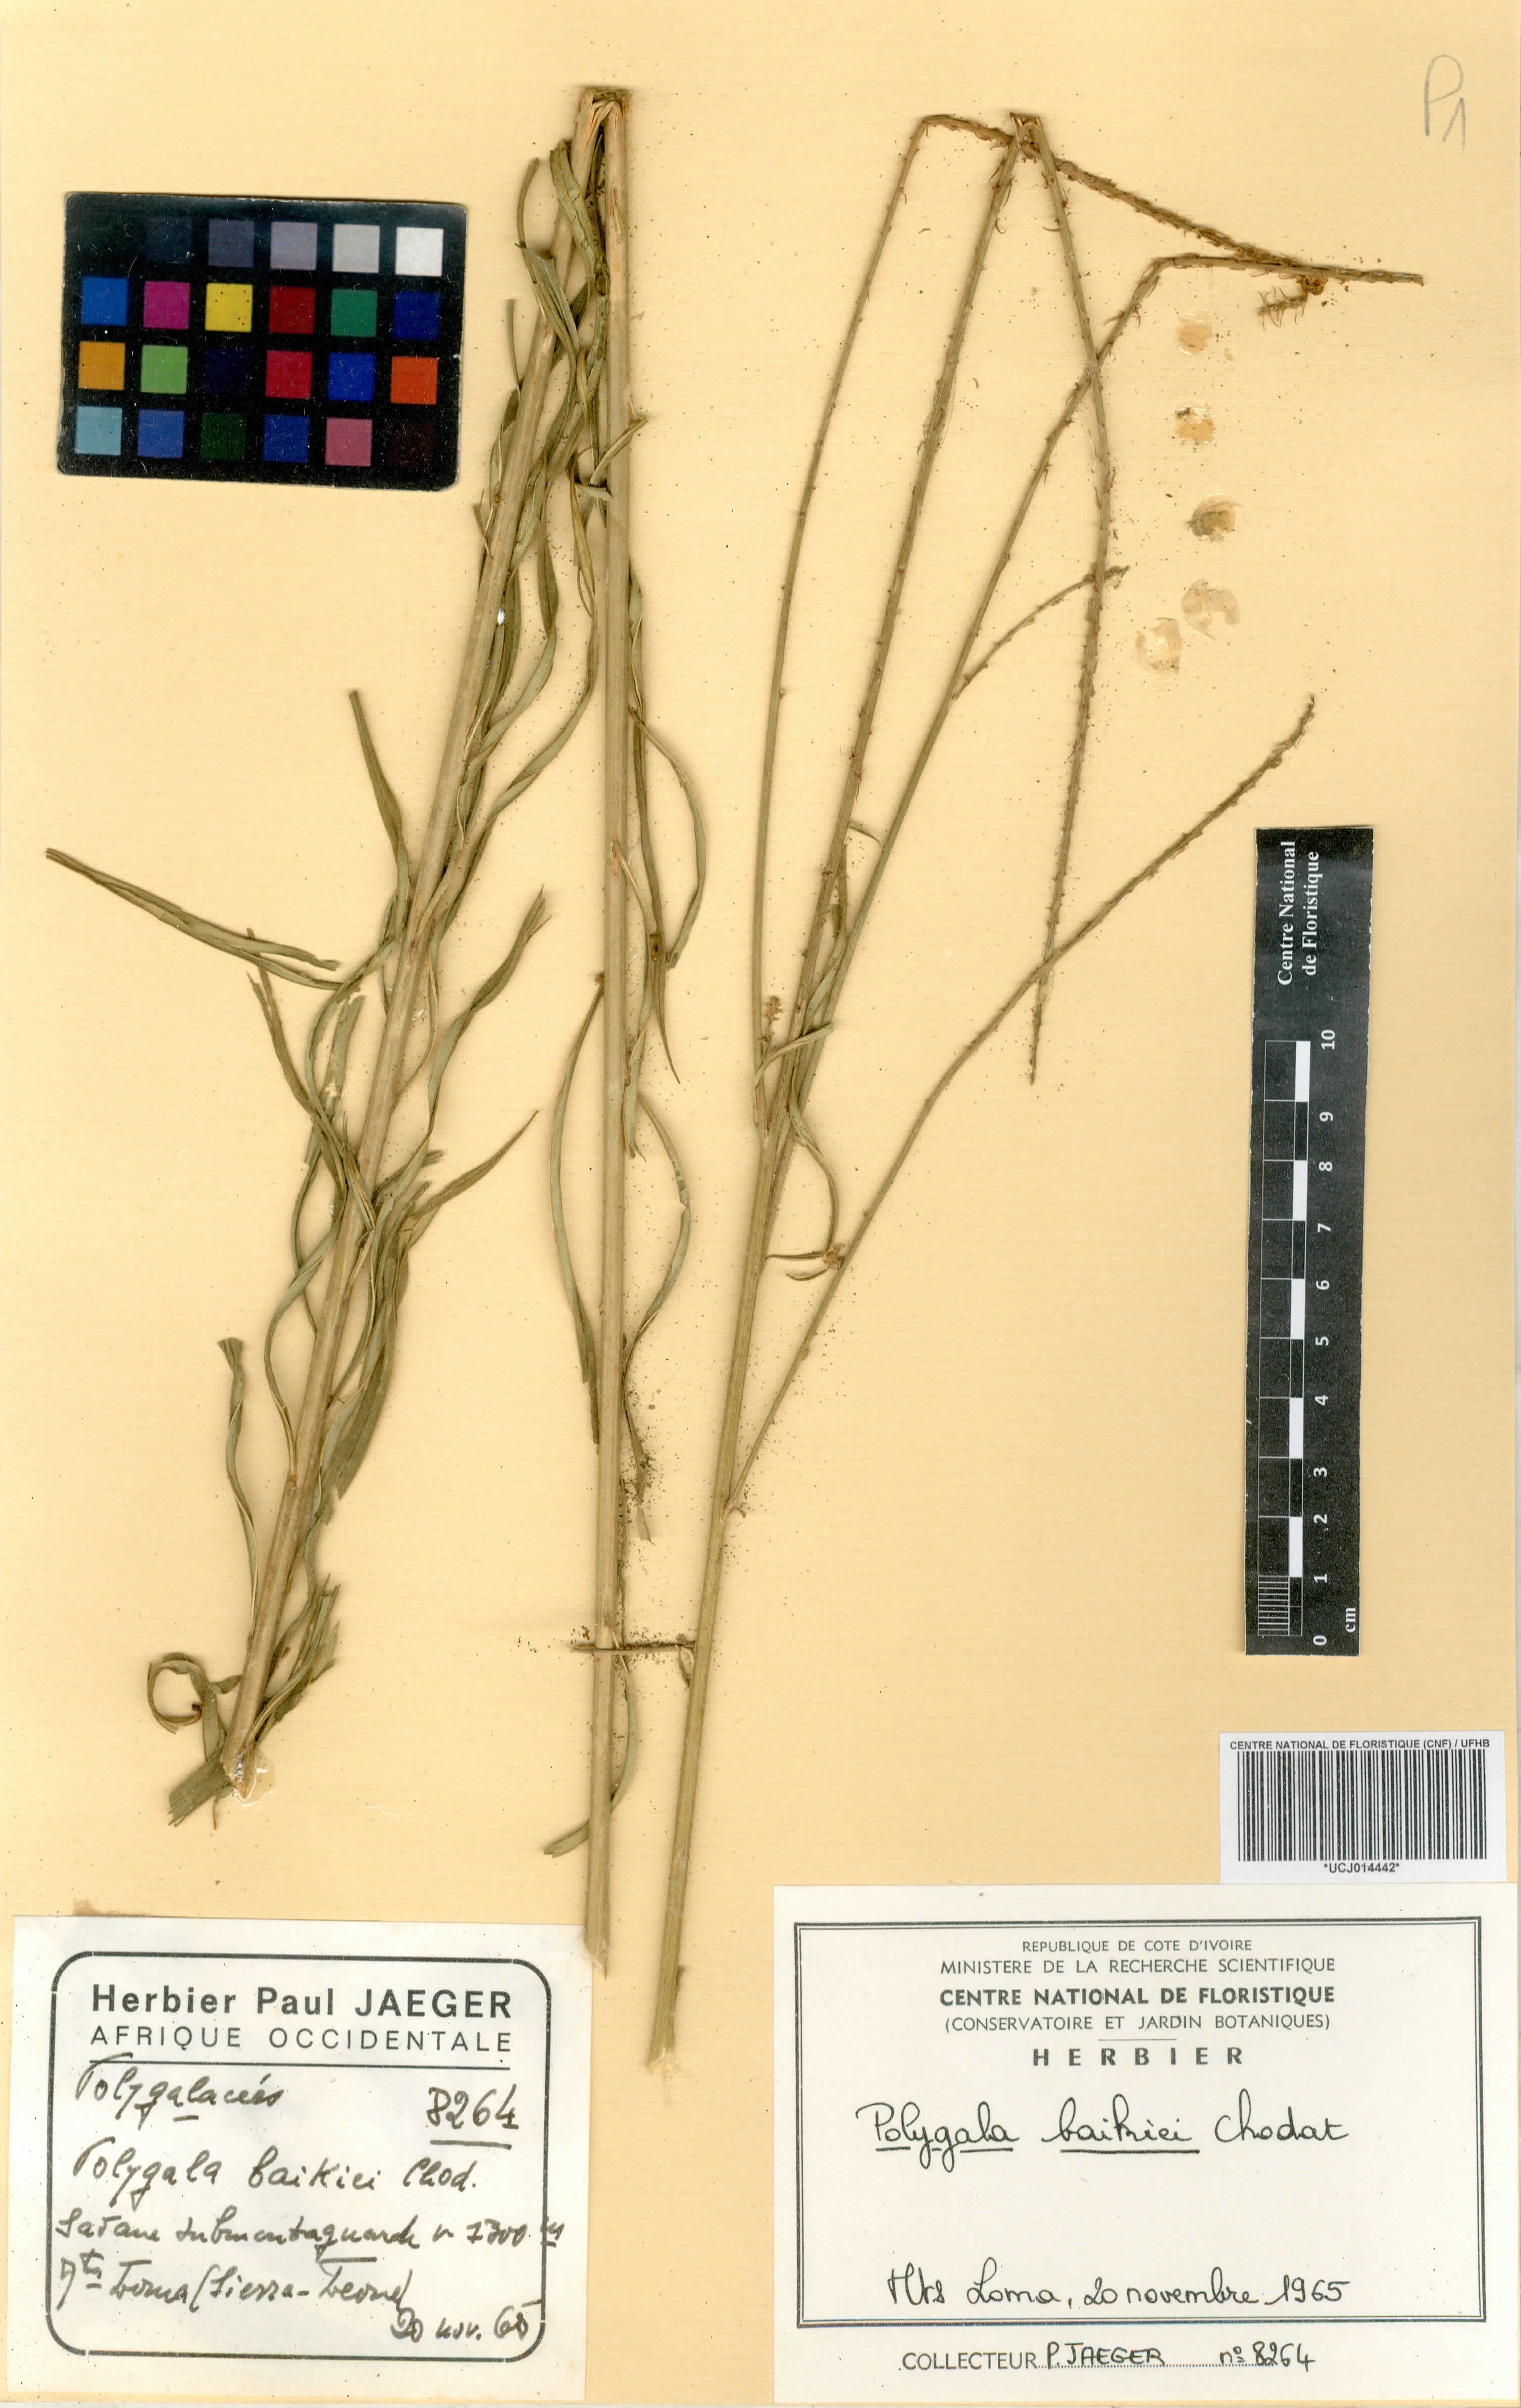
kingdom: Plantae
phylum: Tracheophyta
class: Magnoliopsida
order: Fabales
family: Polygalaceae
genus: Polygala
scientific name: Polygala baikiei
